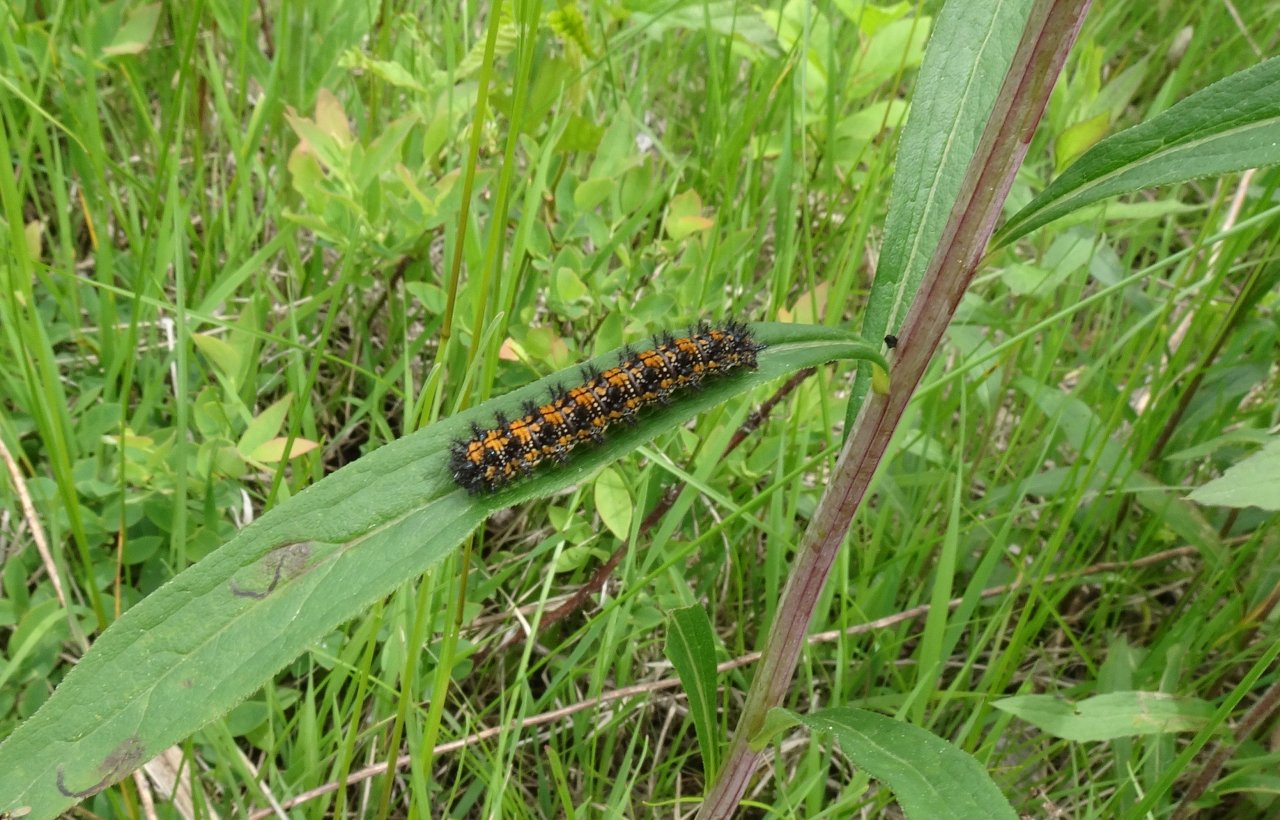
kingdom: Animalia
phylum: Arthropoda
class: Insecta
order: Lepidoptera
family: Nymphalidae
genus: Chlosyne
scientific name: Chlosyne harrisii
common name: Harris's Checkerspot
